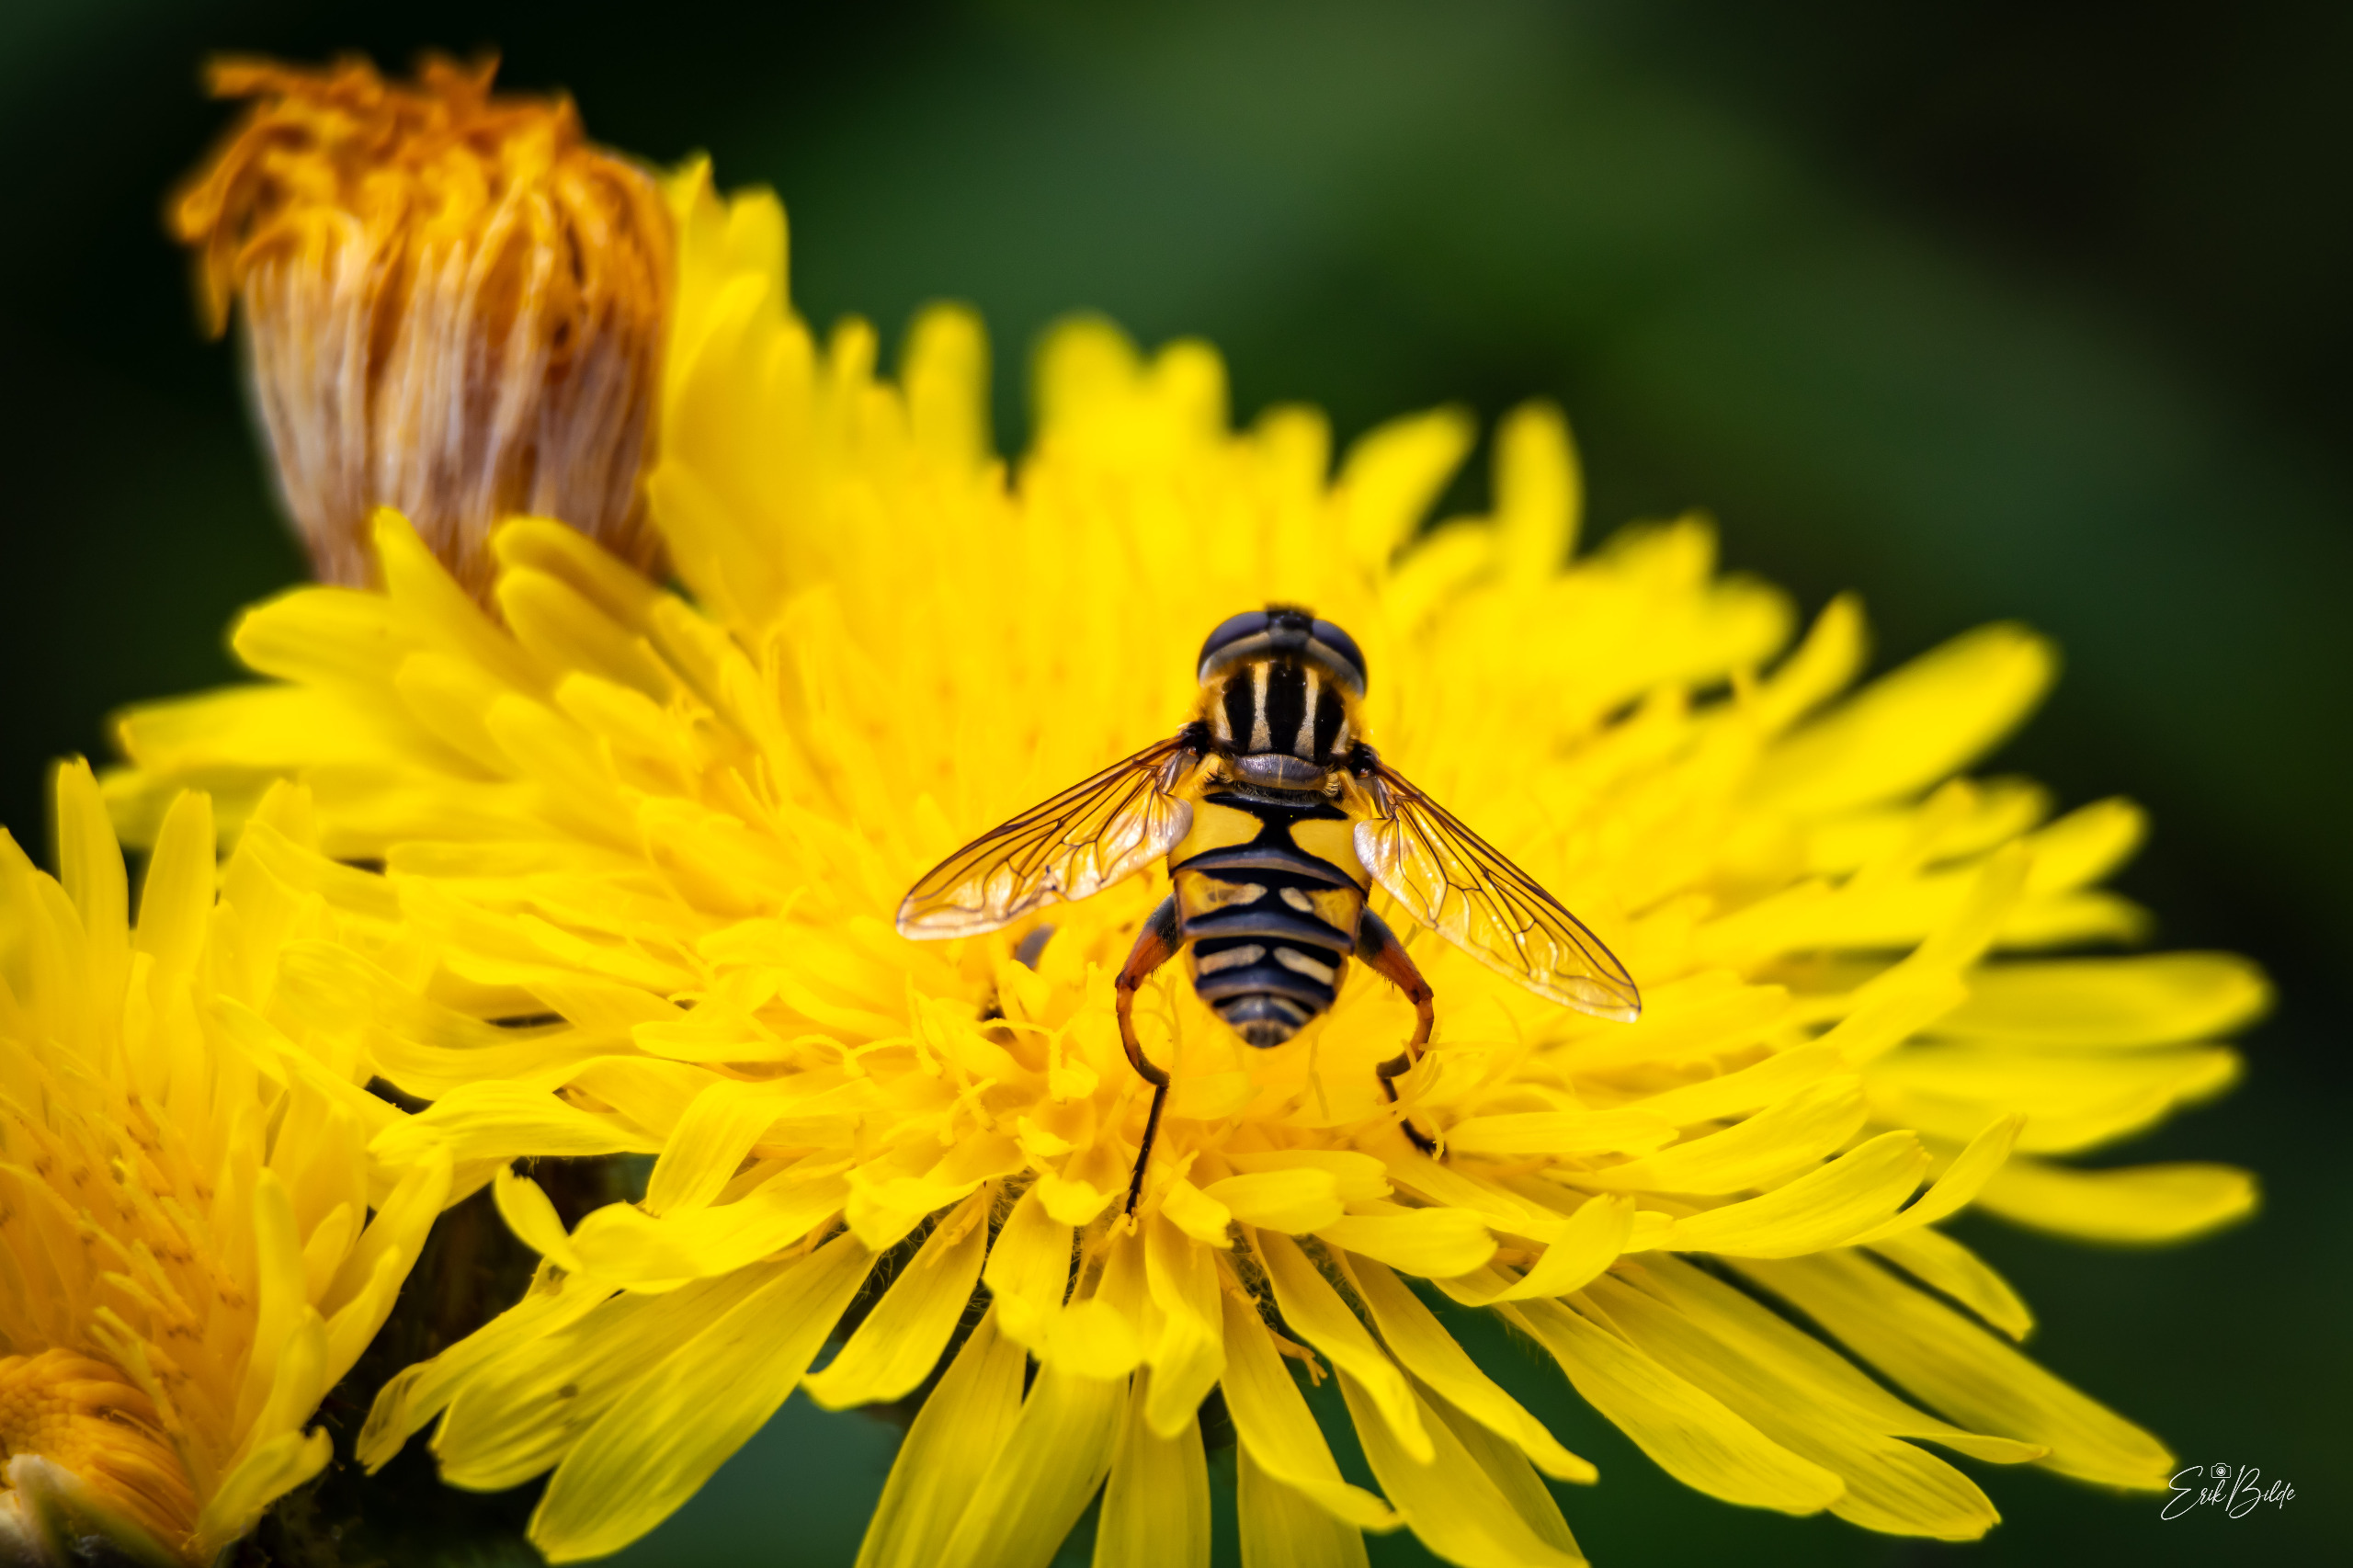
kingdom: Animalia
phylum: Arthropoda
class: Insecta
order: Diptera
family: Syrphidae
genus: Helophilus
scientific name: Helophilus pendulus
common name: Almindelig sumpsvirreflue
